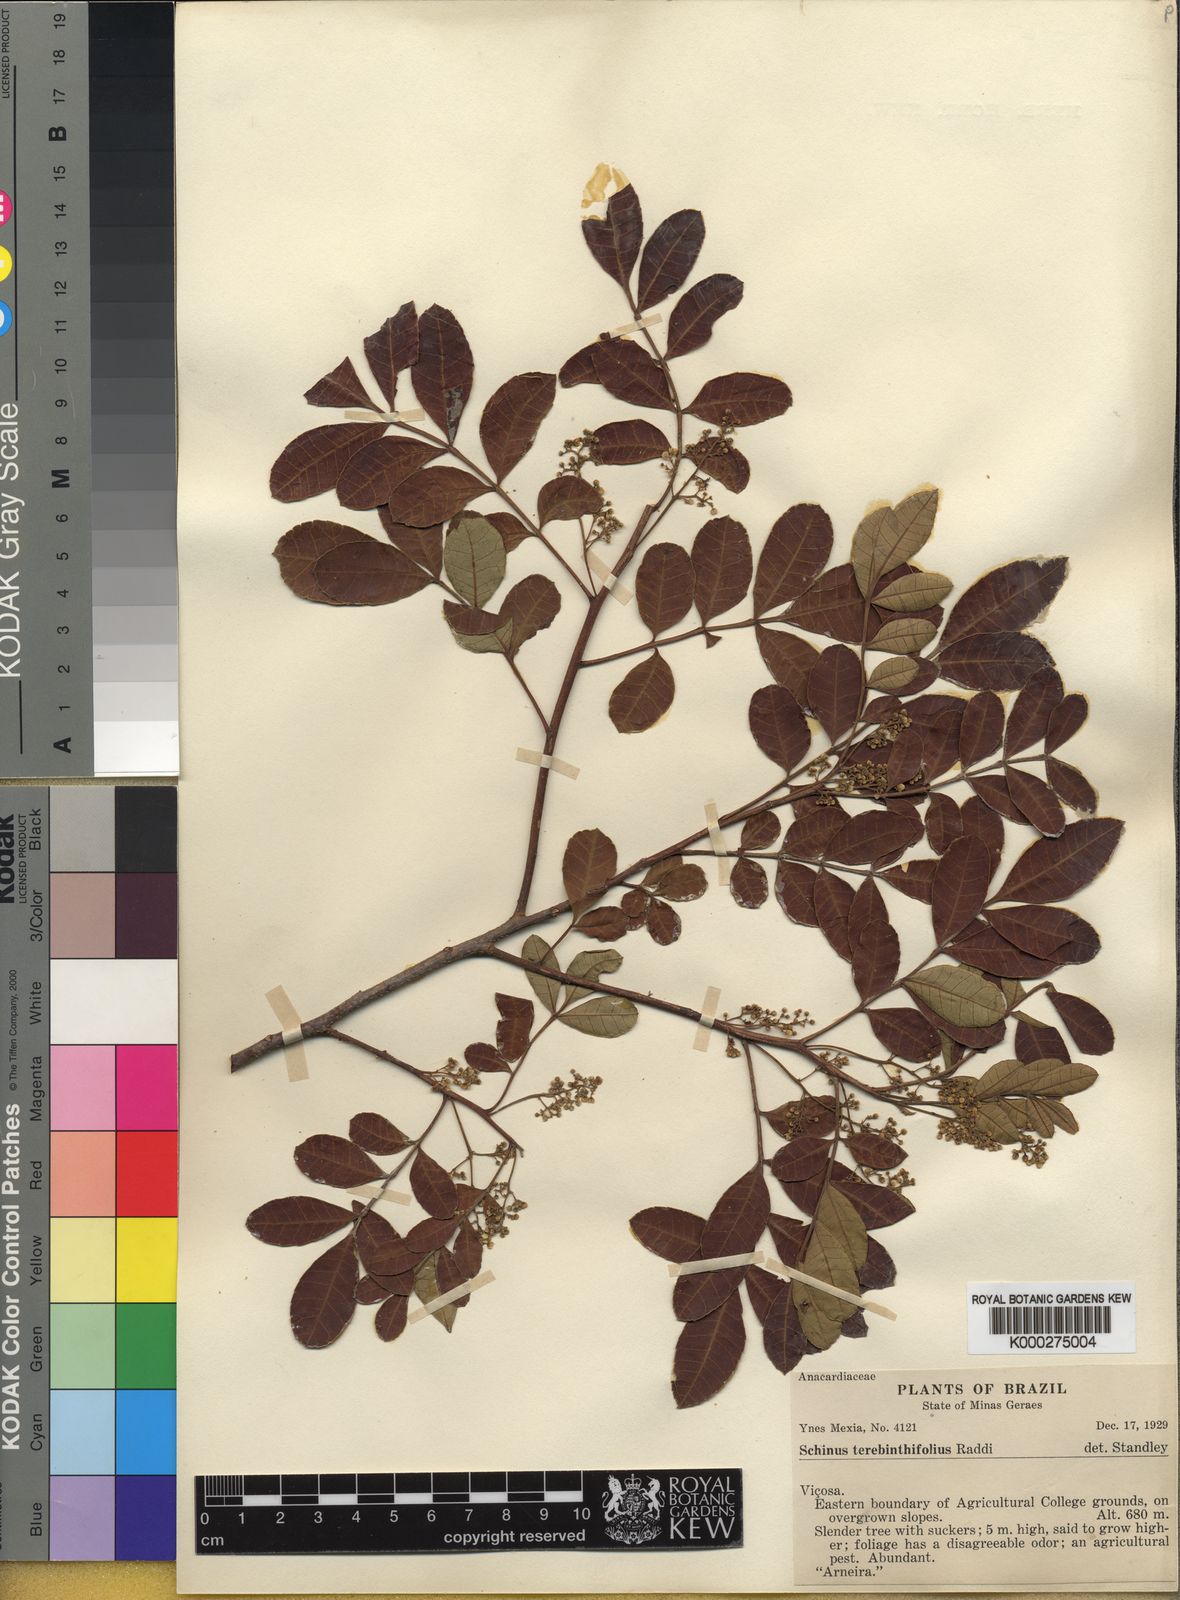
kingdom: Plantae
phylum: Tracheophyta
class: Magnoliopsida
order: Sapindales
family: Anacardiaceae
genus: Schinus
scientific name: Schinus terebinthifolia
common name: Brazilian peppertree
